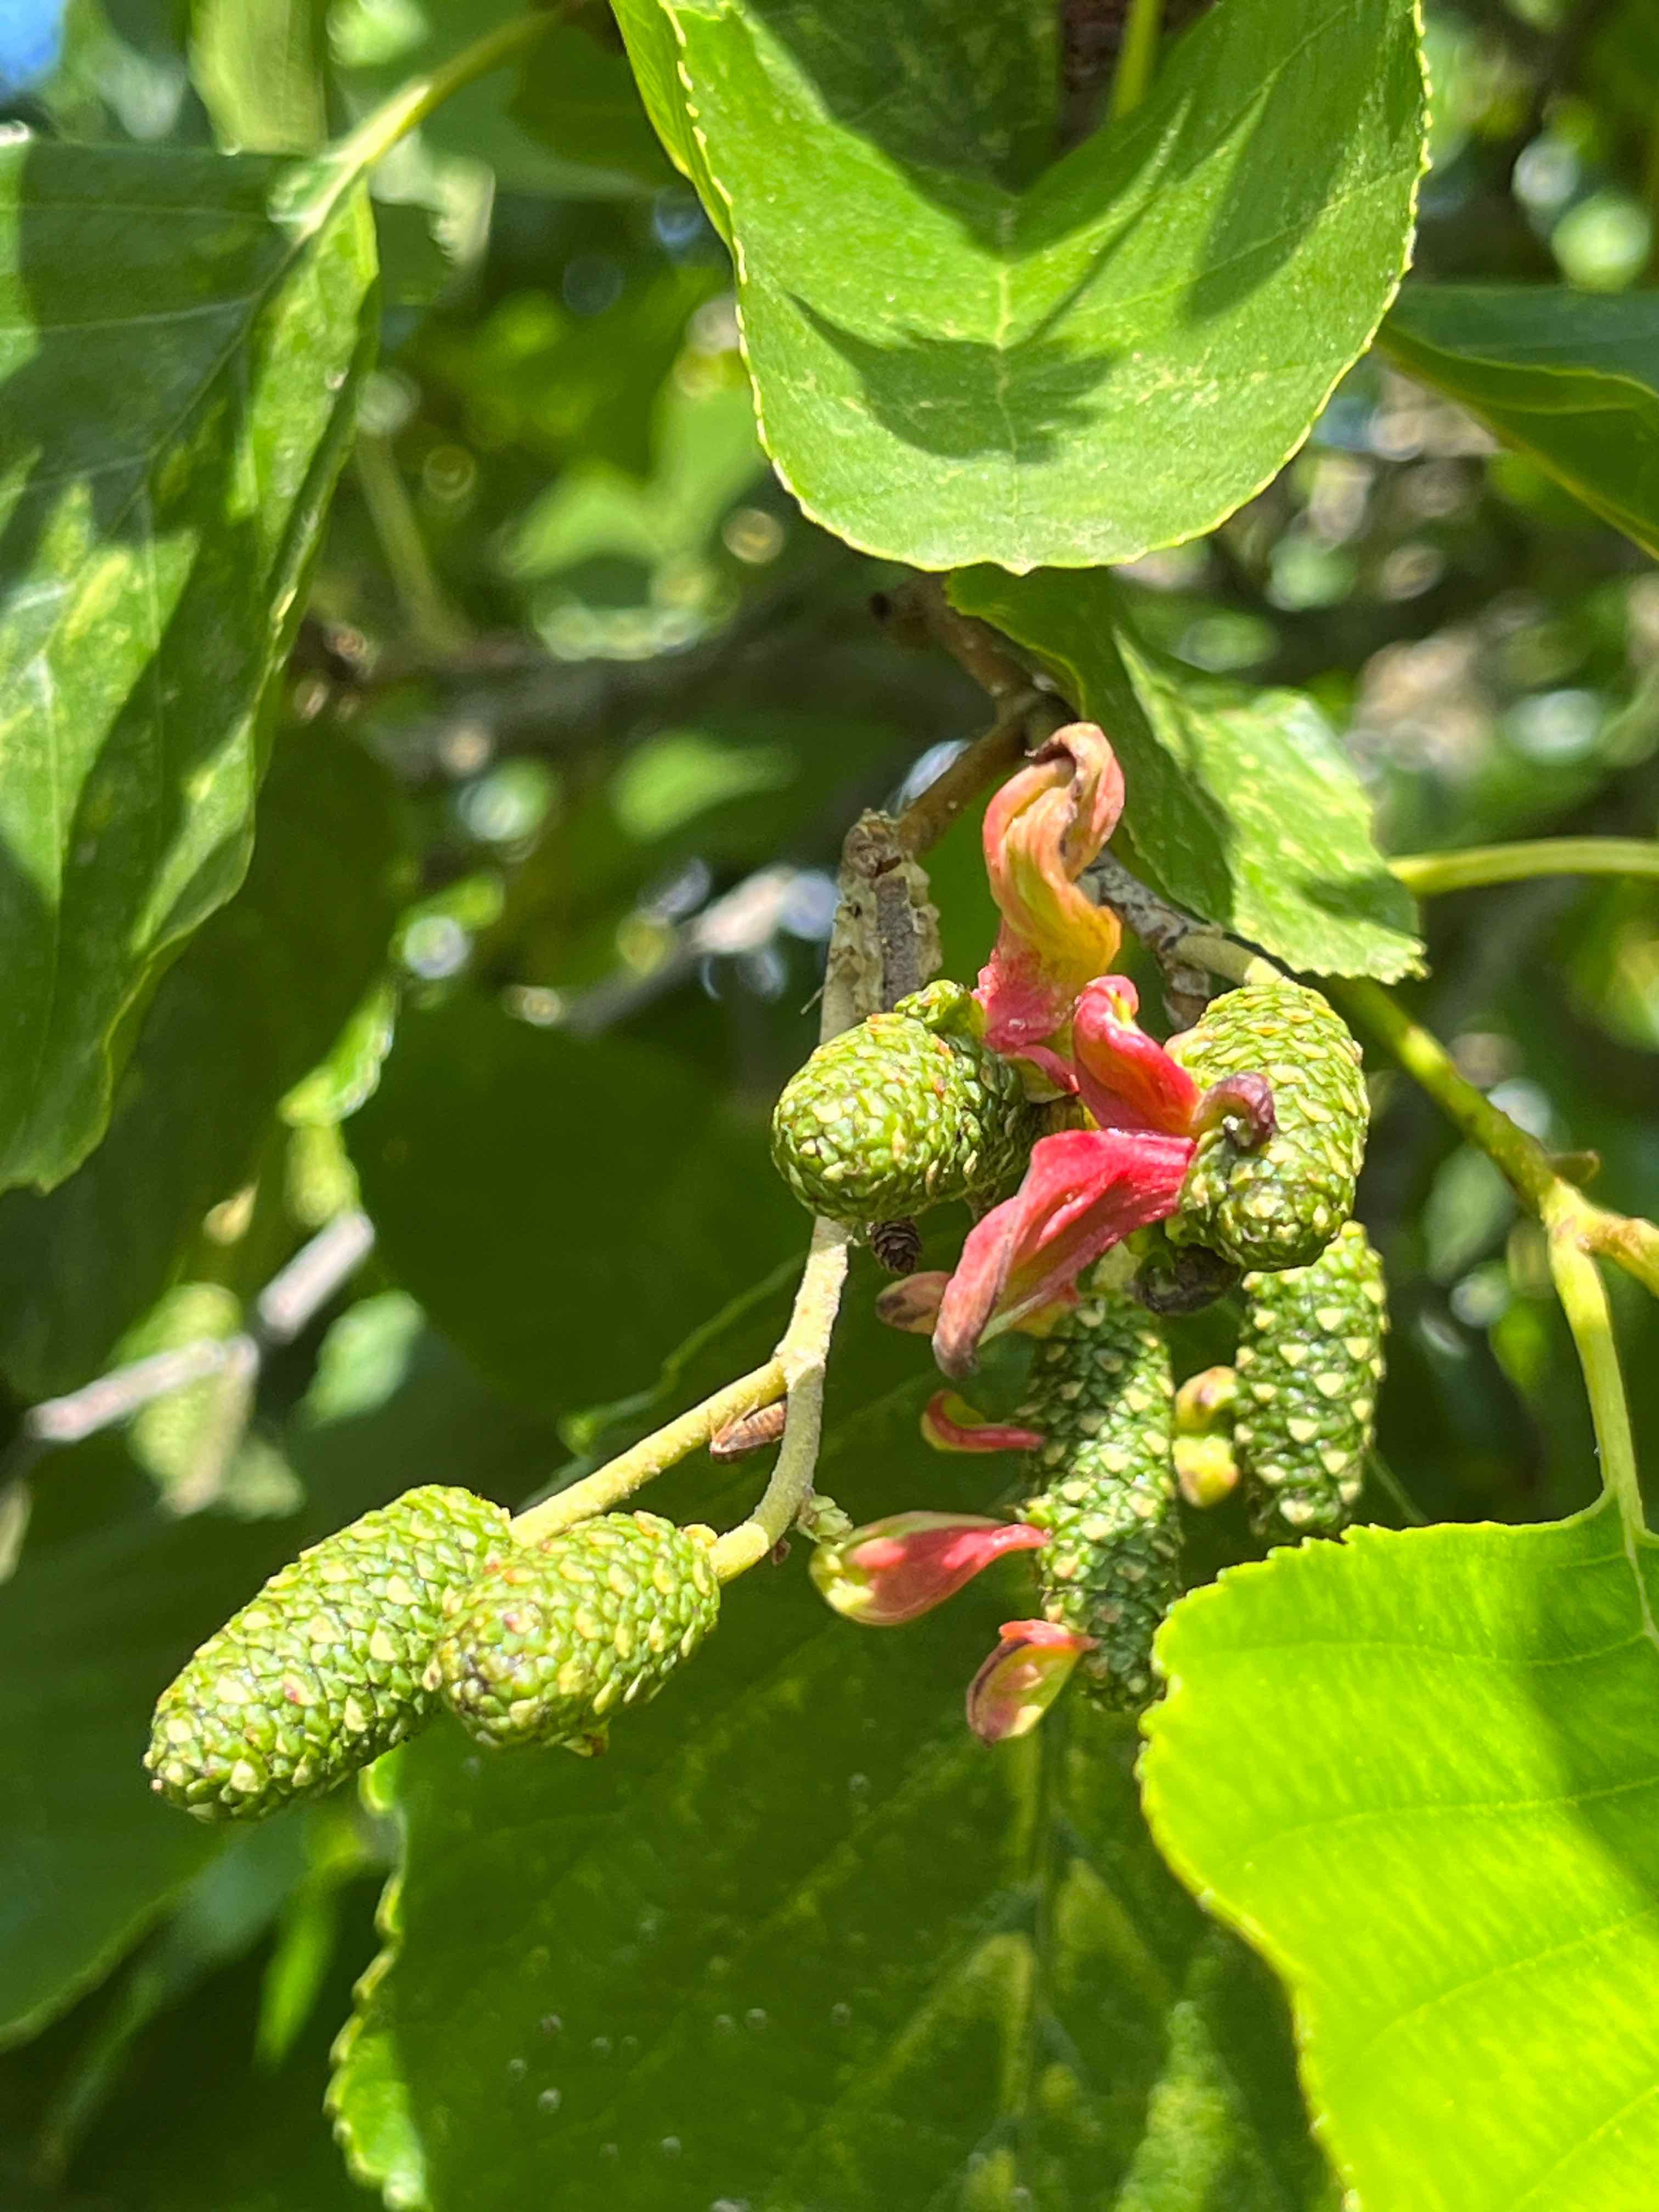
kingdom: Fungi
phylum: Ascomycota
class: Taphrinomycetes
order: Taphrinales
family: Taphrinaceae
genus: Taphrina
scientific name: Taphrina alni
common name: Alder tongue
